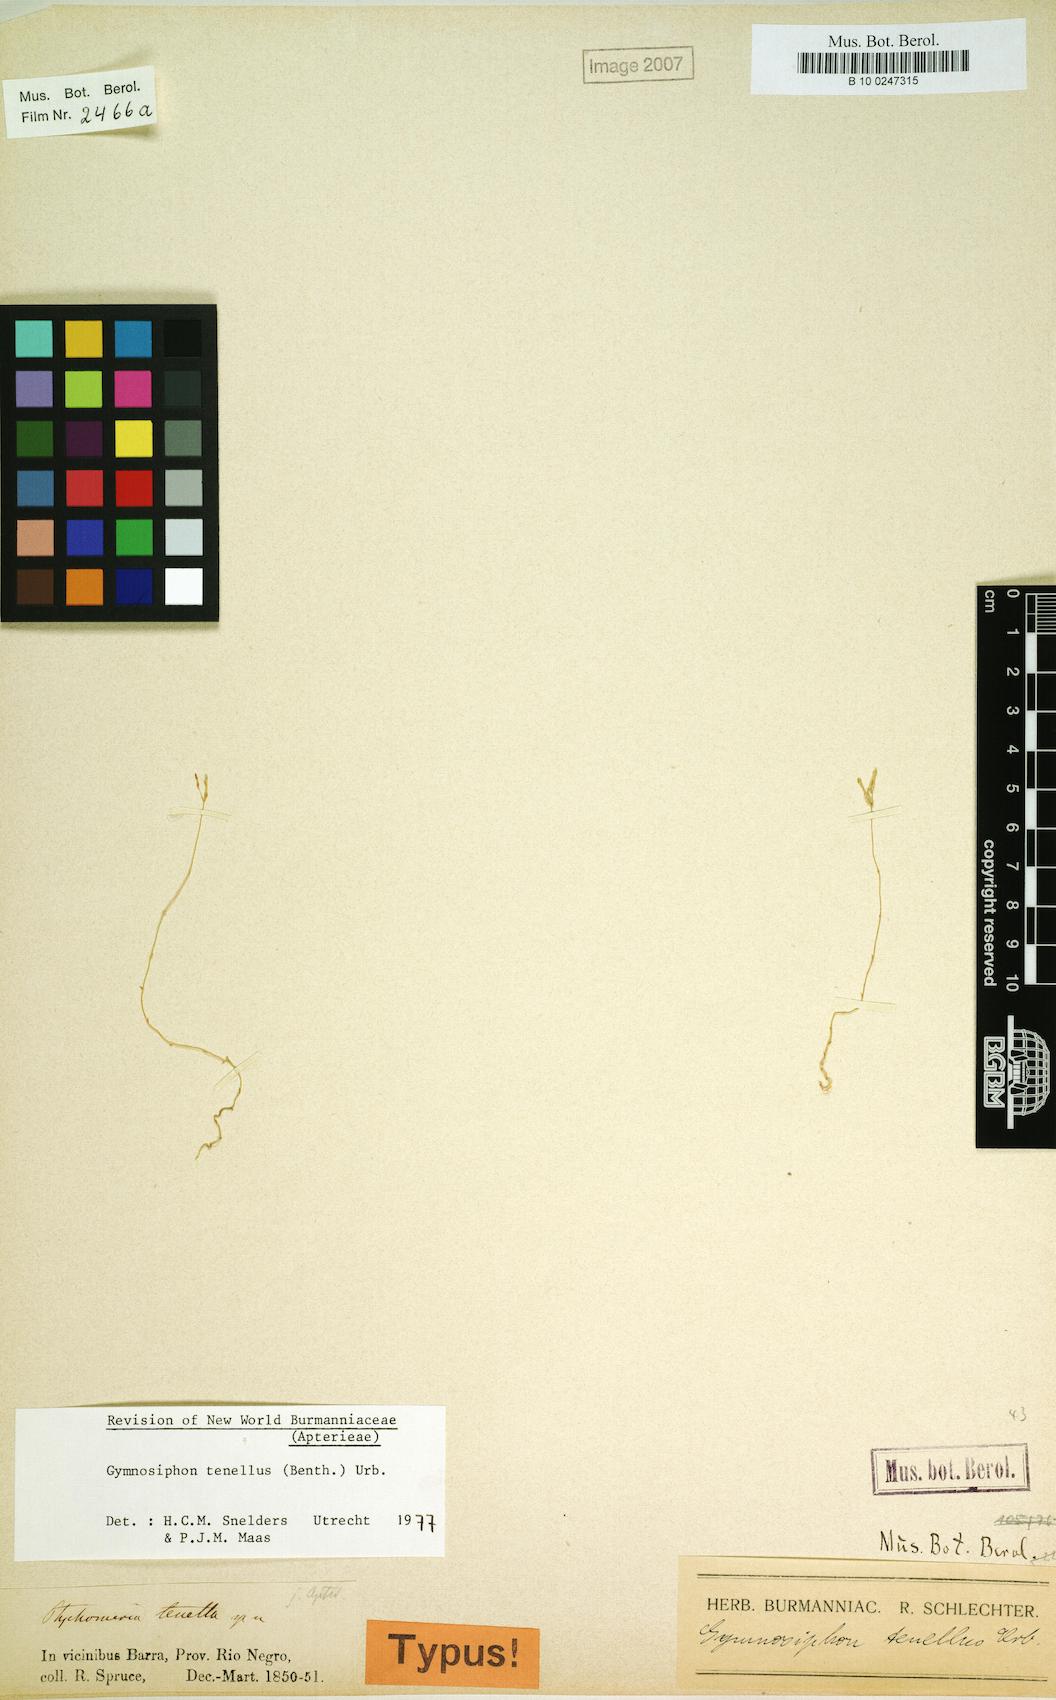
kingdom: Plantae
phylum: Tracheophyta
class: Liliopsida
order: Dioscoreales
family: Burmanniaceae
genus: Gymnosiphon
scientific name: Gymnosiphon tenellus
